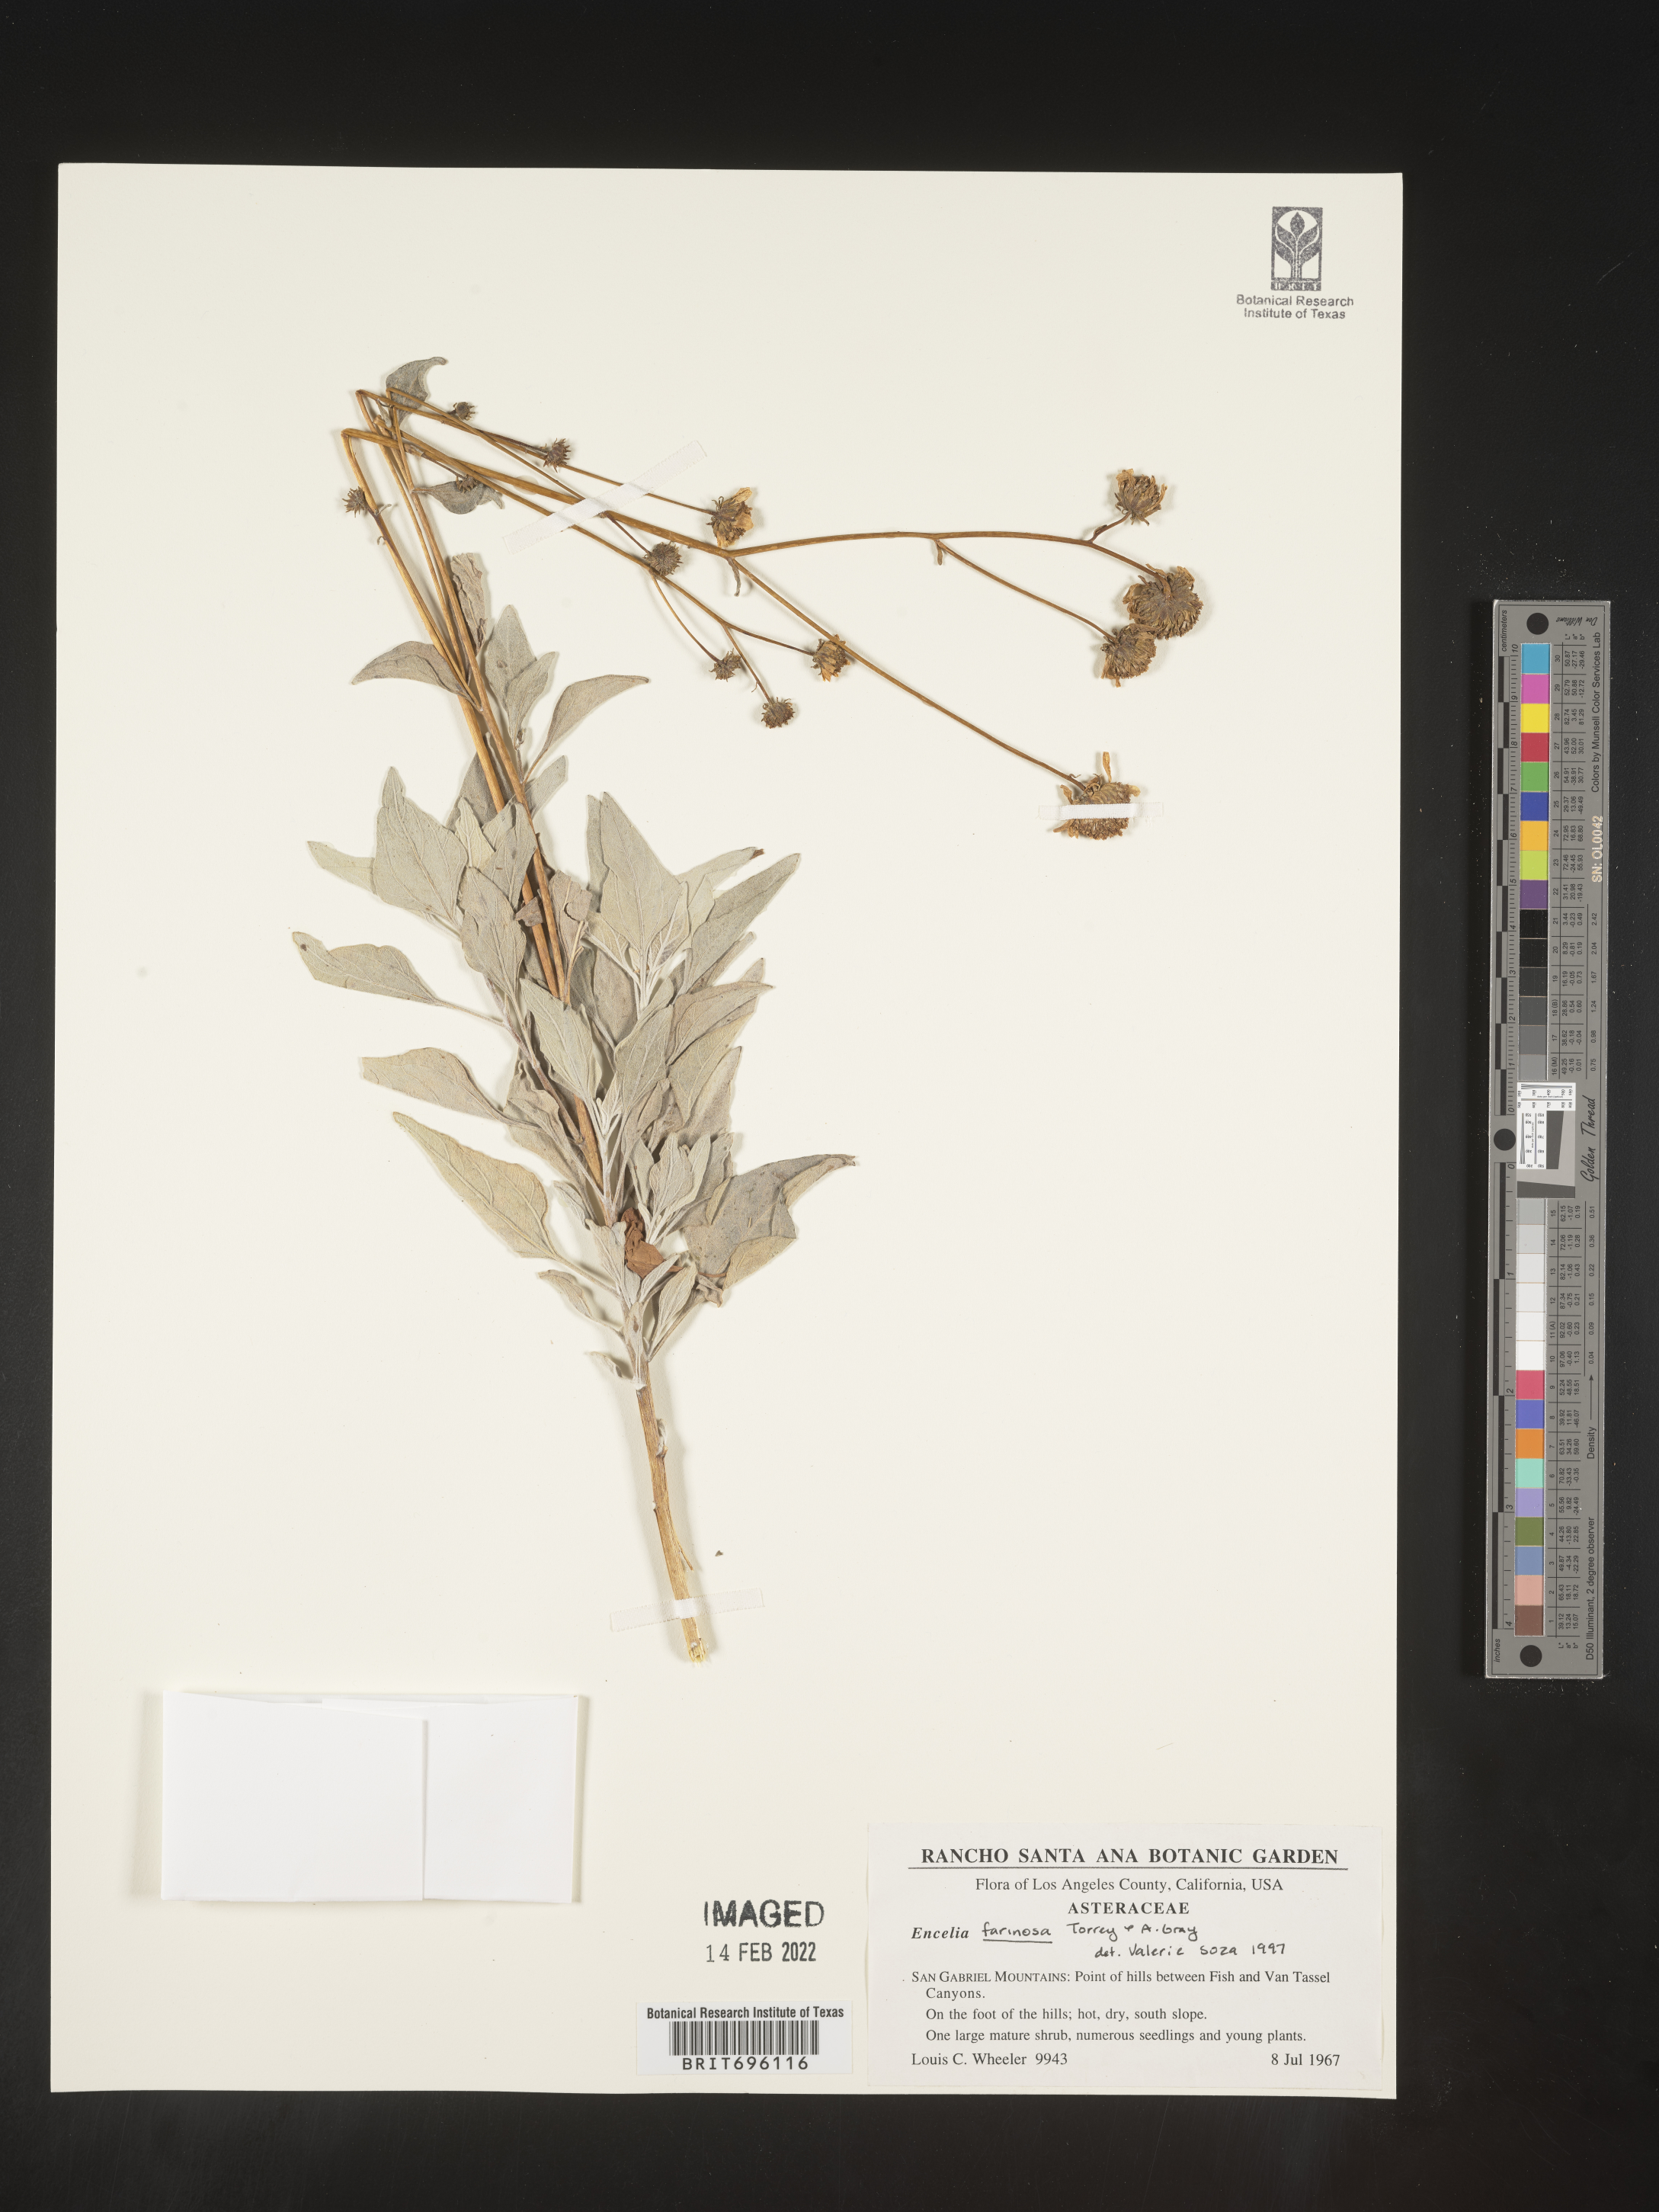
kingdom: Plantae
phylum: Tracheophyta
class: Magnoliopsida
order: Asterales
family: Asteraceae
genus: Encelia
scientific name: Encelia farinosa
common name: Brittlebush
